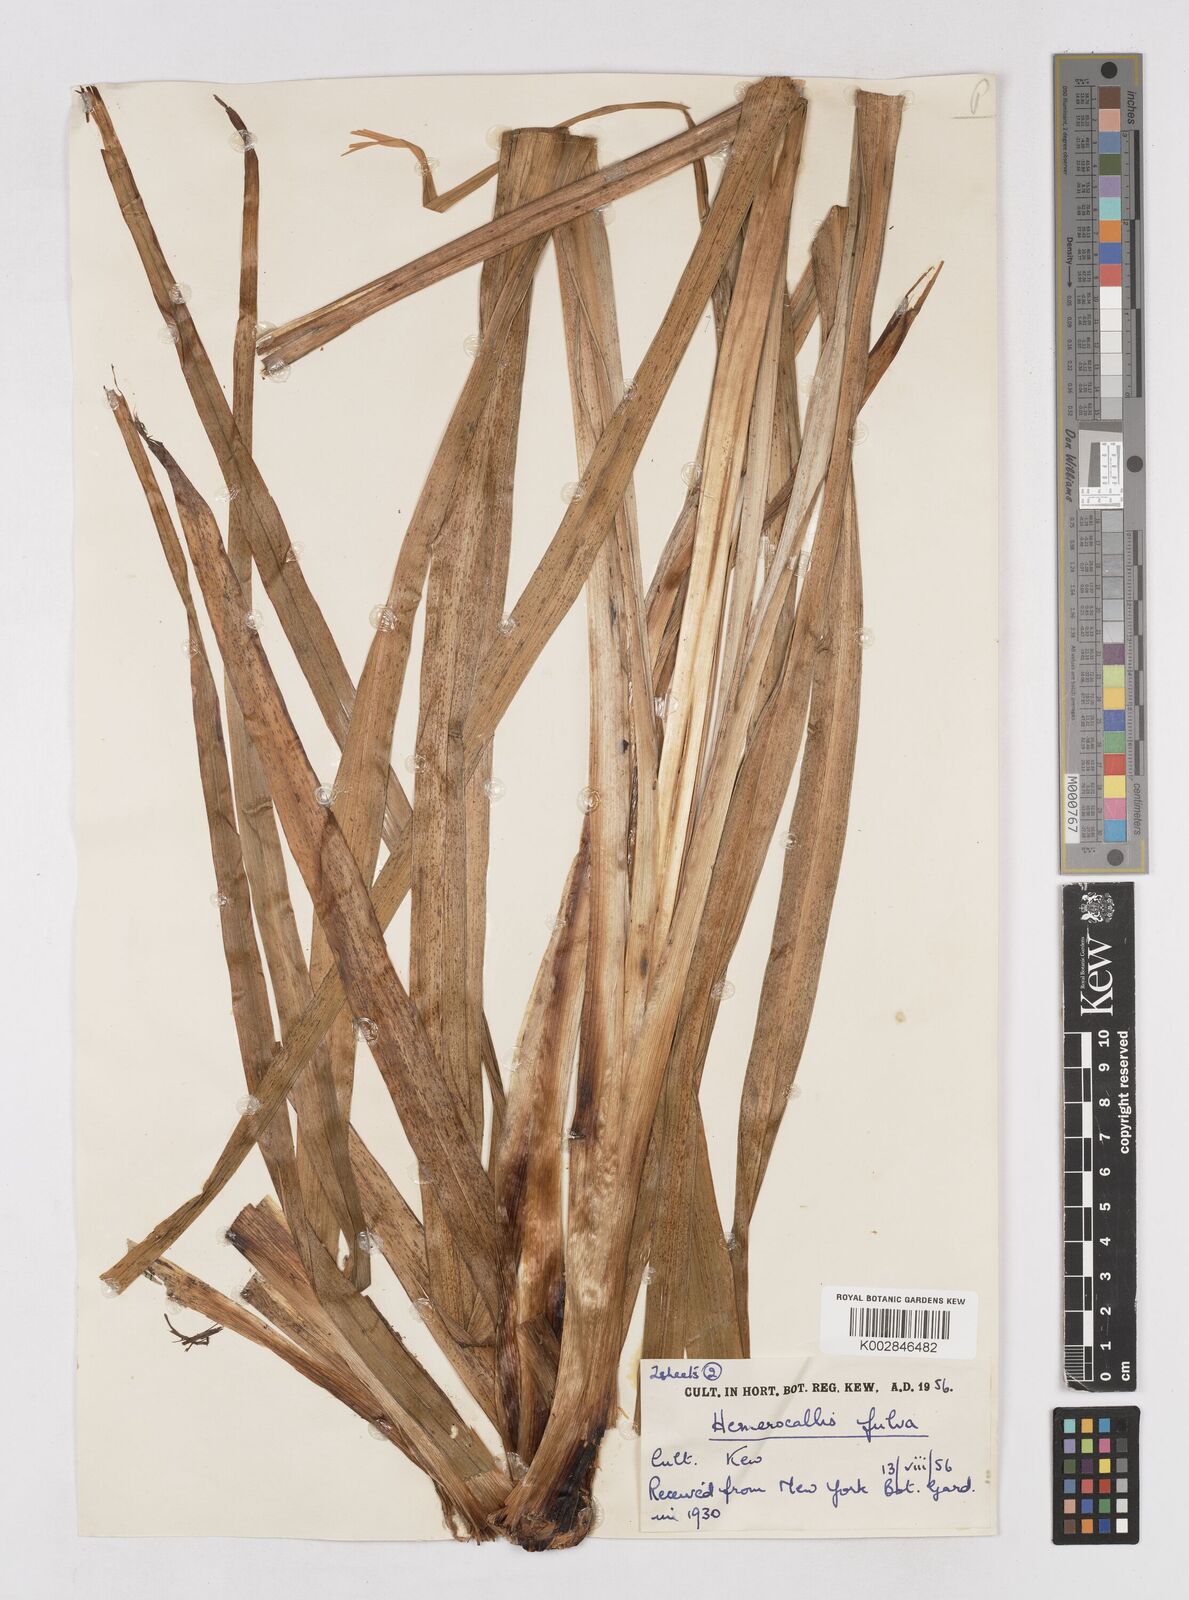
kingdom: Plantae
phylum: Tracheophyta
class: Liliopsida
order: Asparagales
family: Asphodelaceae
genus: Hemerocallis
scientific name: Hemerocallis lilioasphodelus
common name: Yellow day-lily
